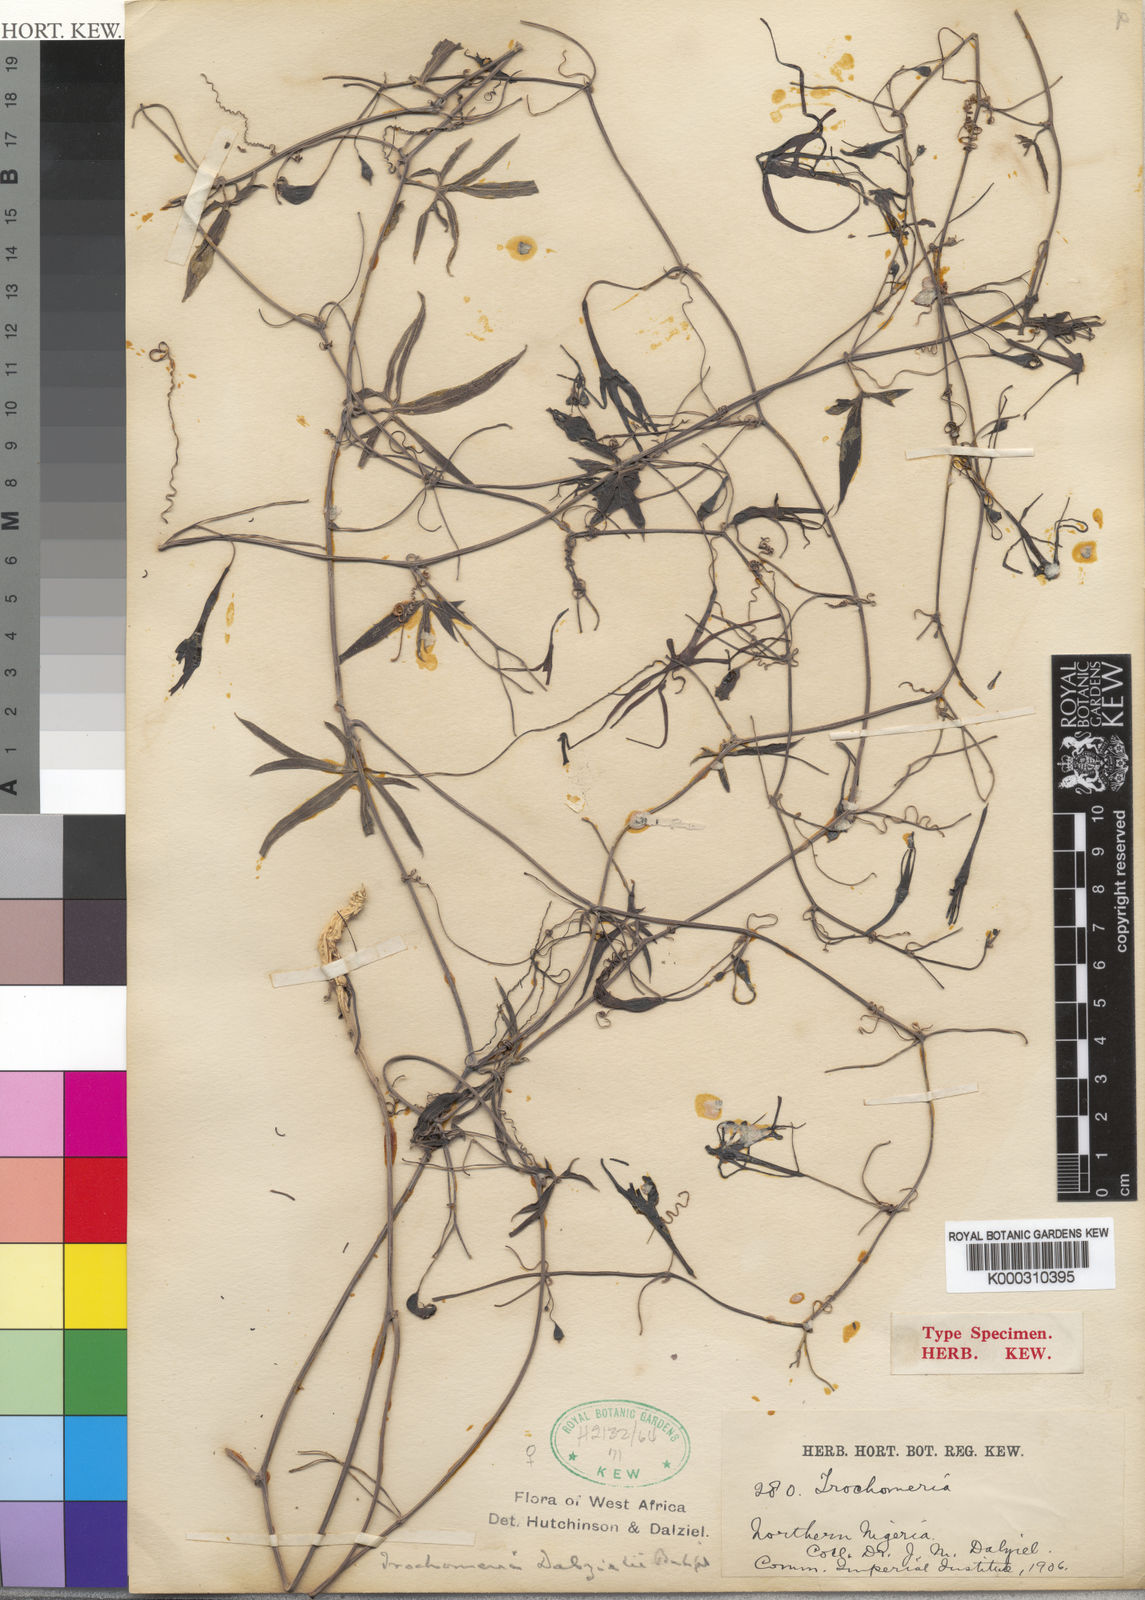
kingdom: Plantae
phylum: Tracheophyta
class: Magnoliopsida
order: Cucurbitales
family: Cucurbitaceae
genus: Trochomeria
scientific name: Trochomeria
